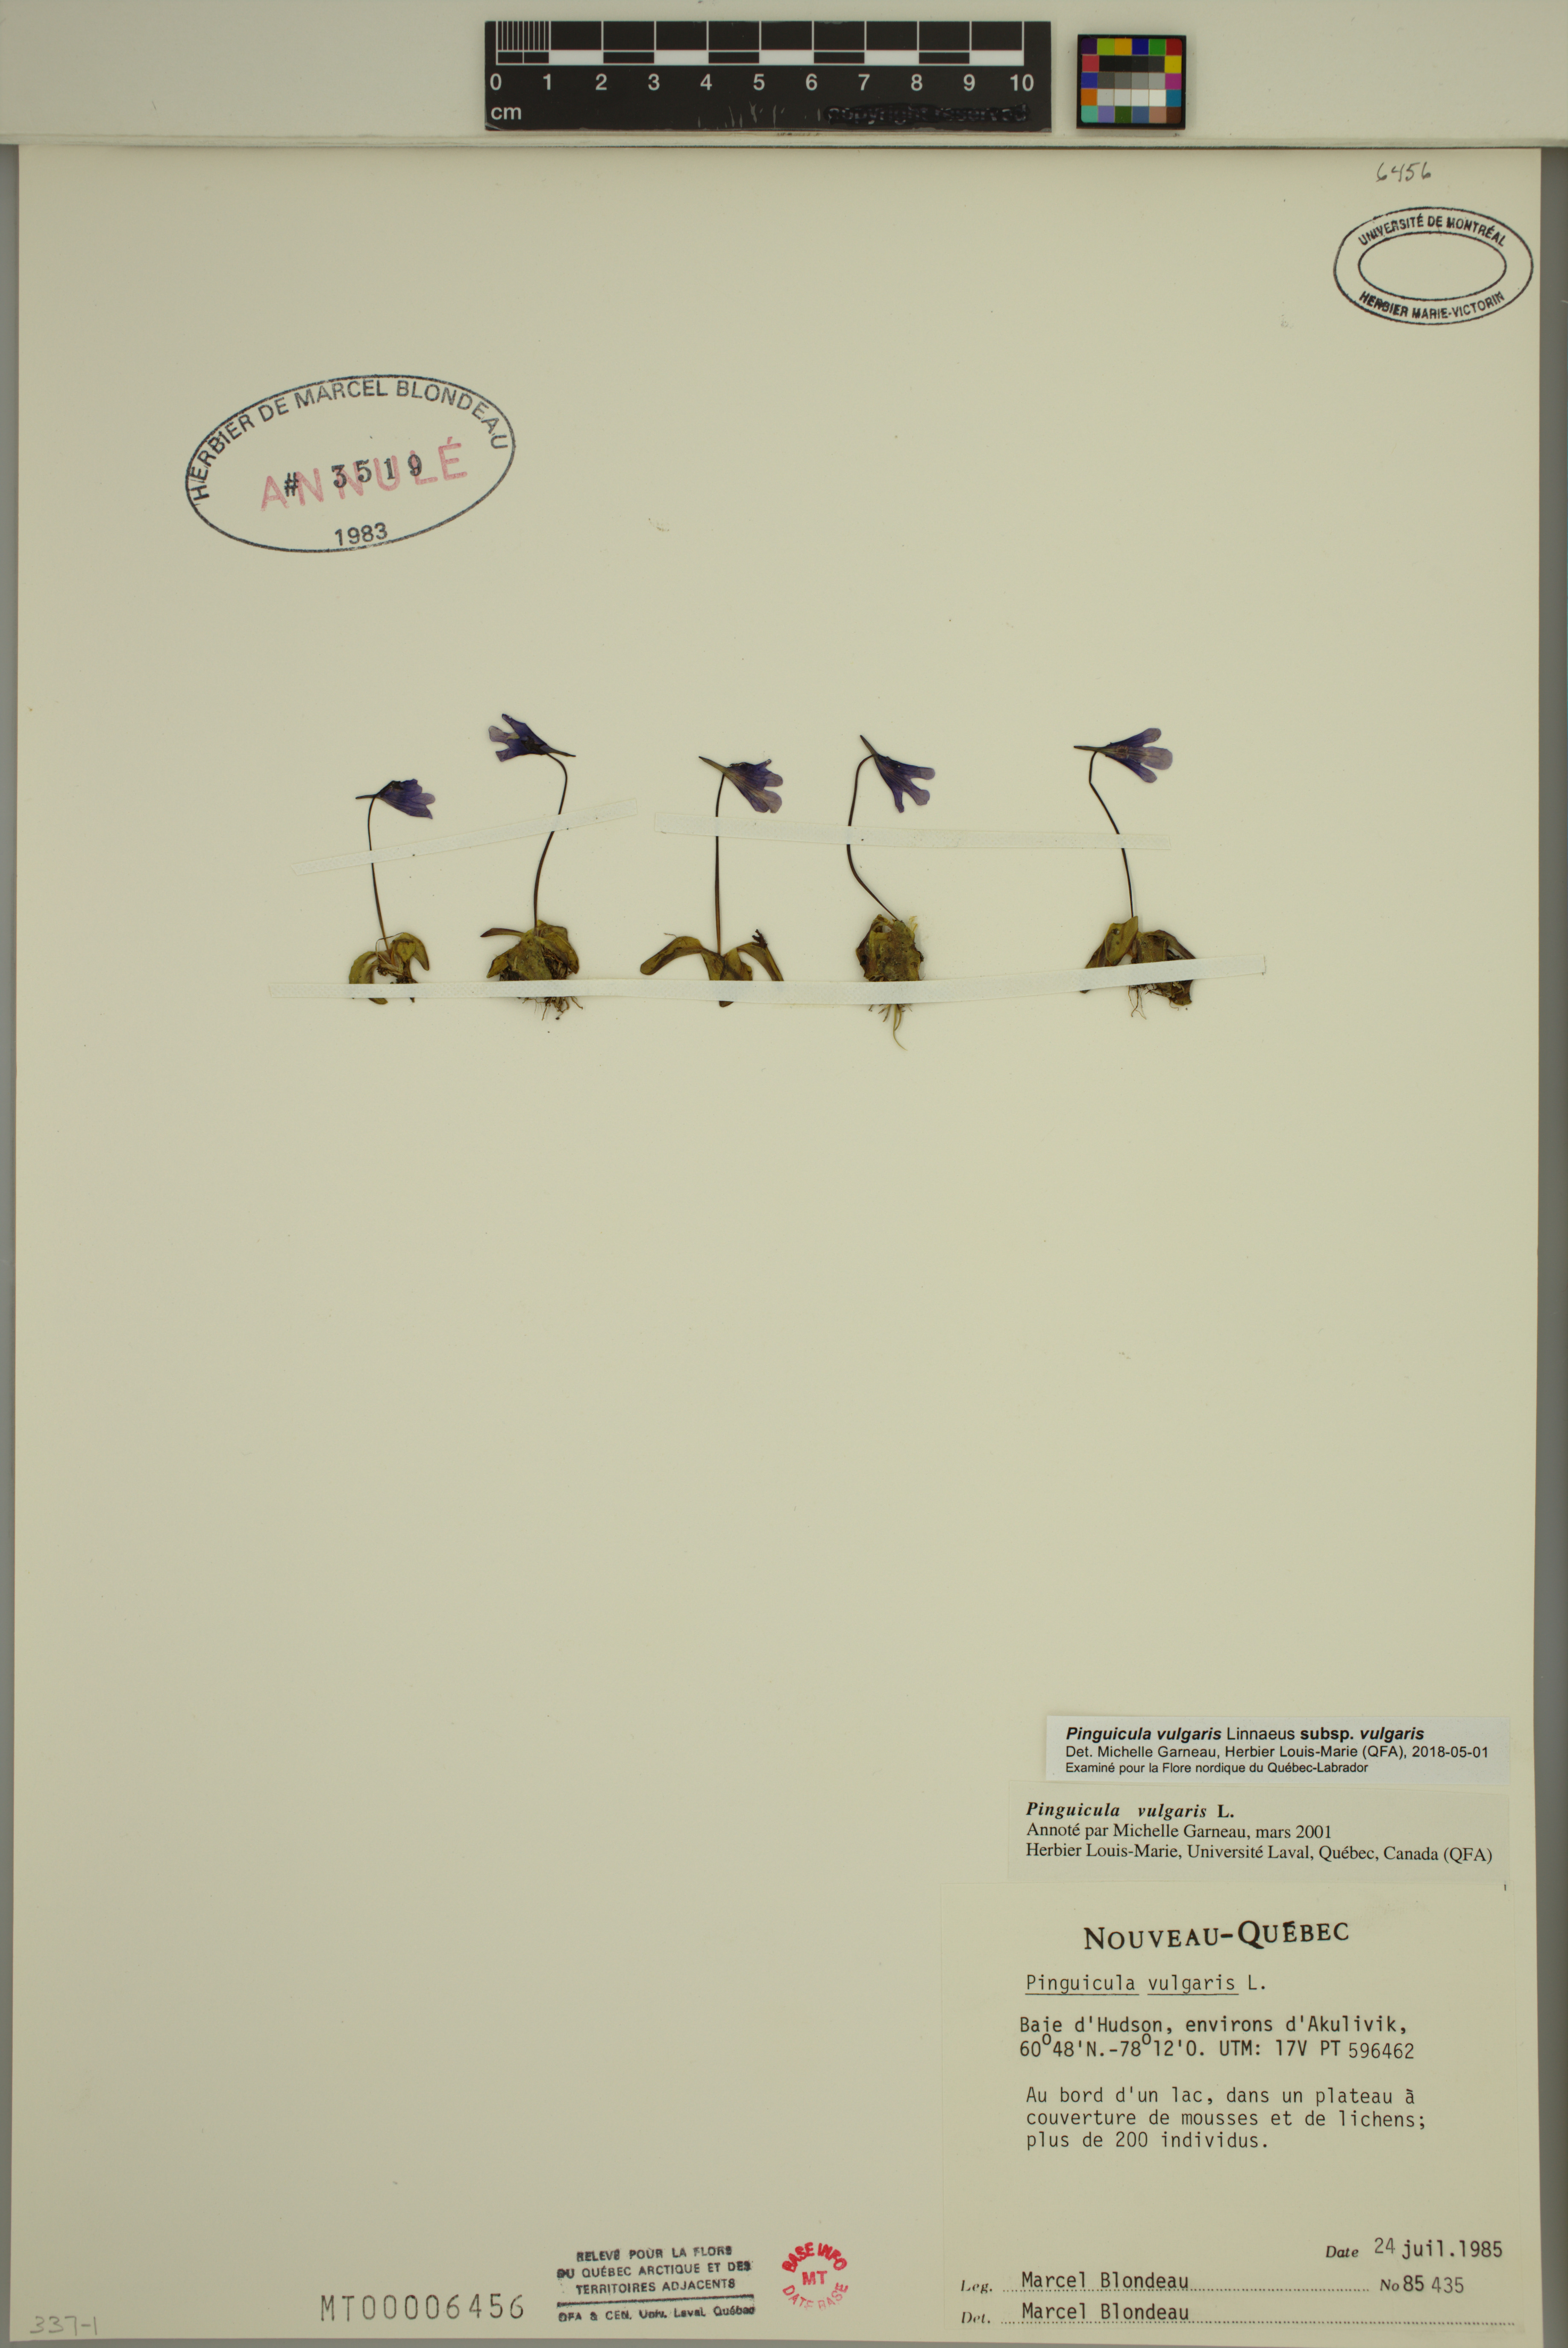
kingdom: Plantae
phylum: Tracheophyta
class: Magnoliopsida
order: Lamiales
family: Lentibulariaceae
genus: Pinguicula
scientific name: Pinguicula vulgaris
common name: Common butterwort
